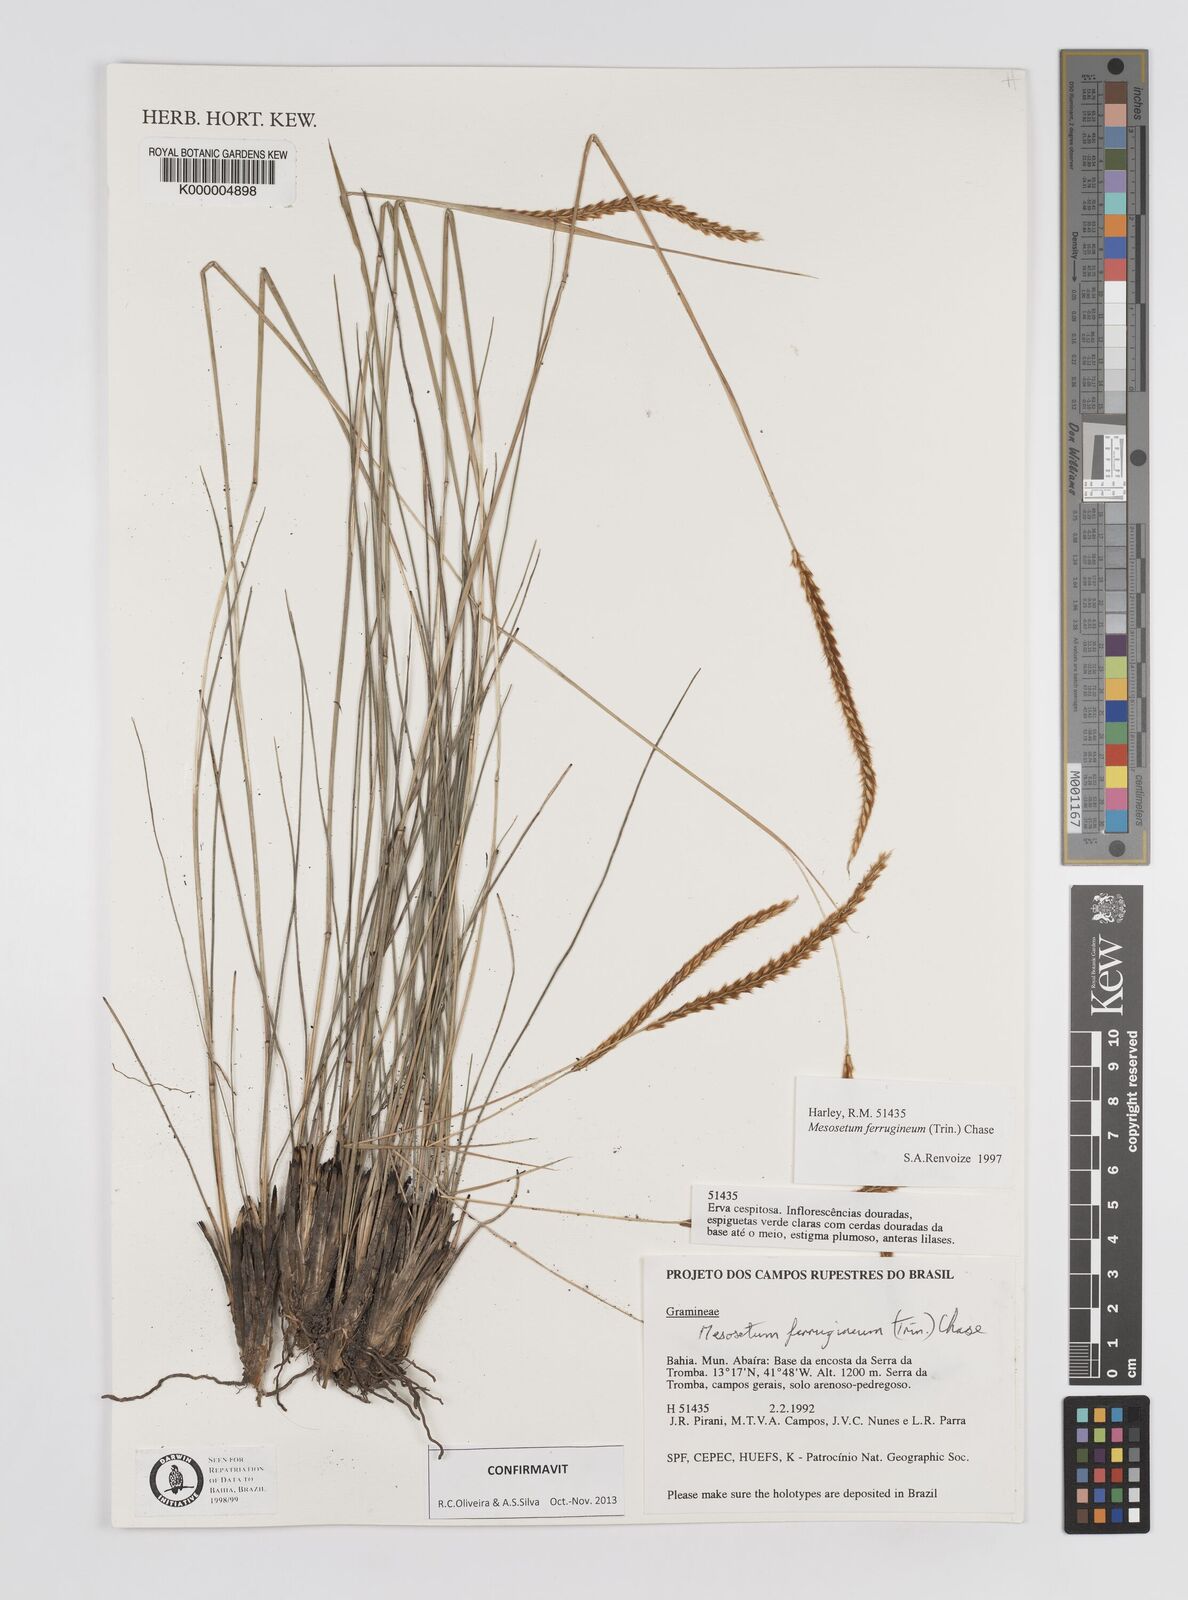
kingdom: Plantae
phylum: Tracheophyta
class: Liliopsida
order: Poales
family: Poaceae
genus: Mesosetum
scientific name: Mesosetum ferrugineum
